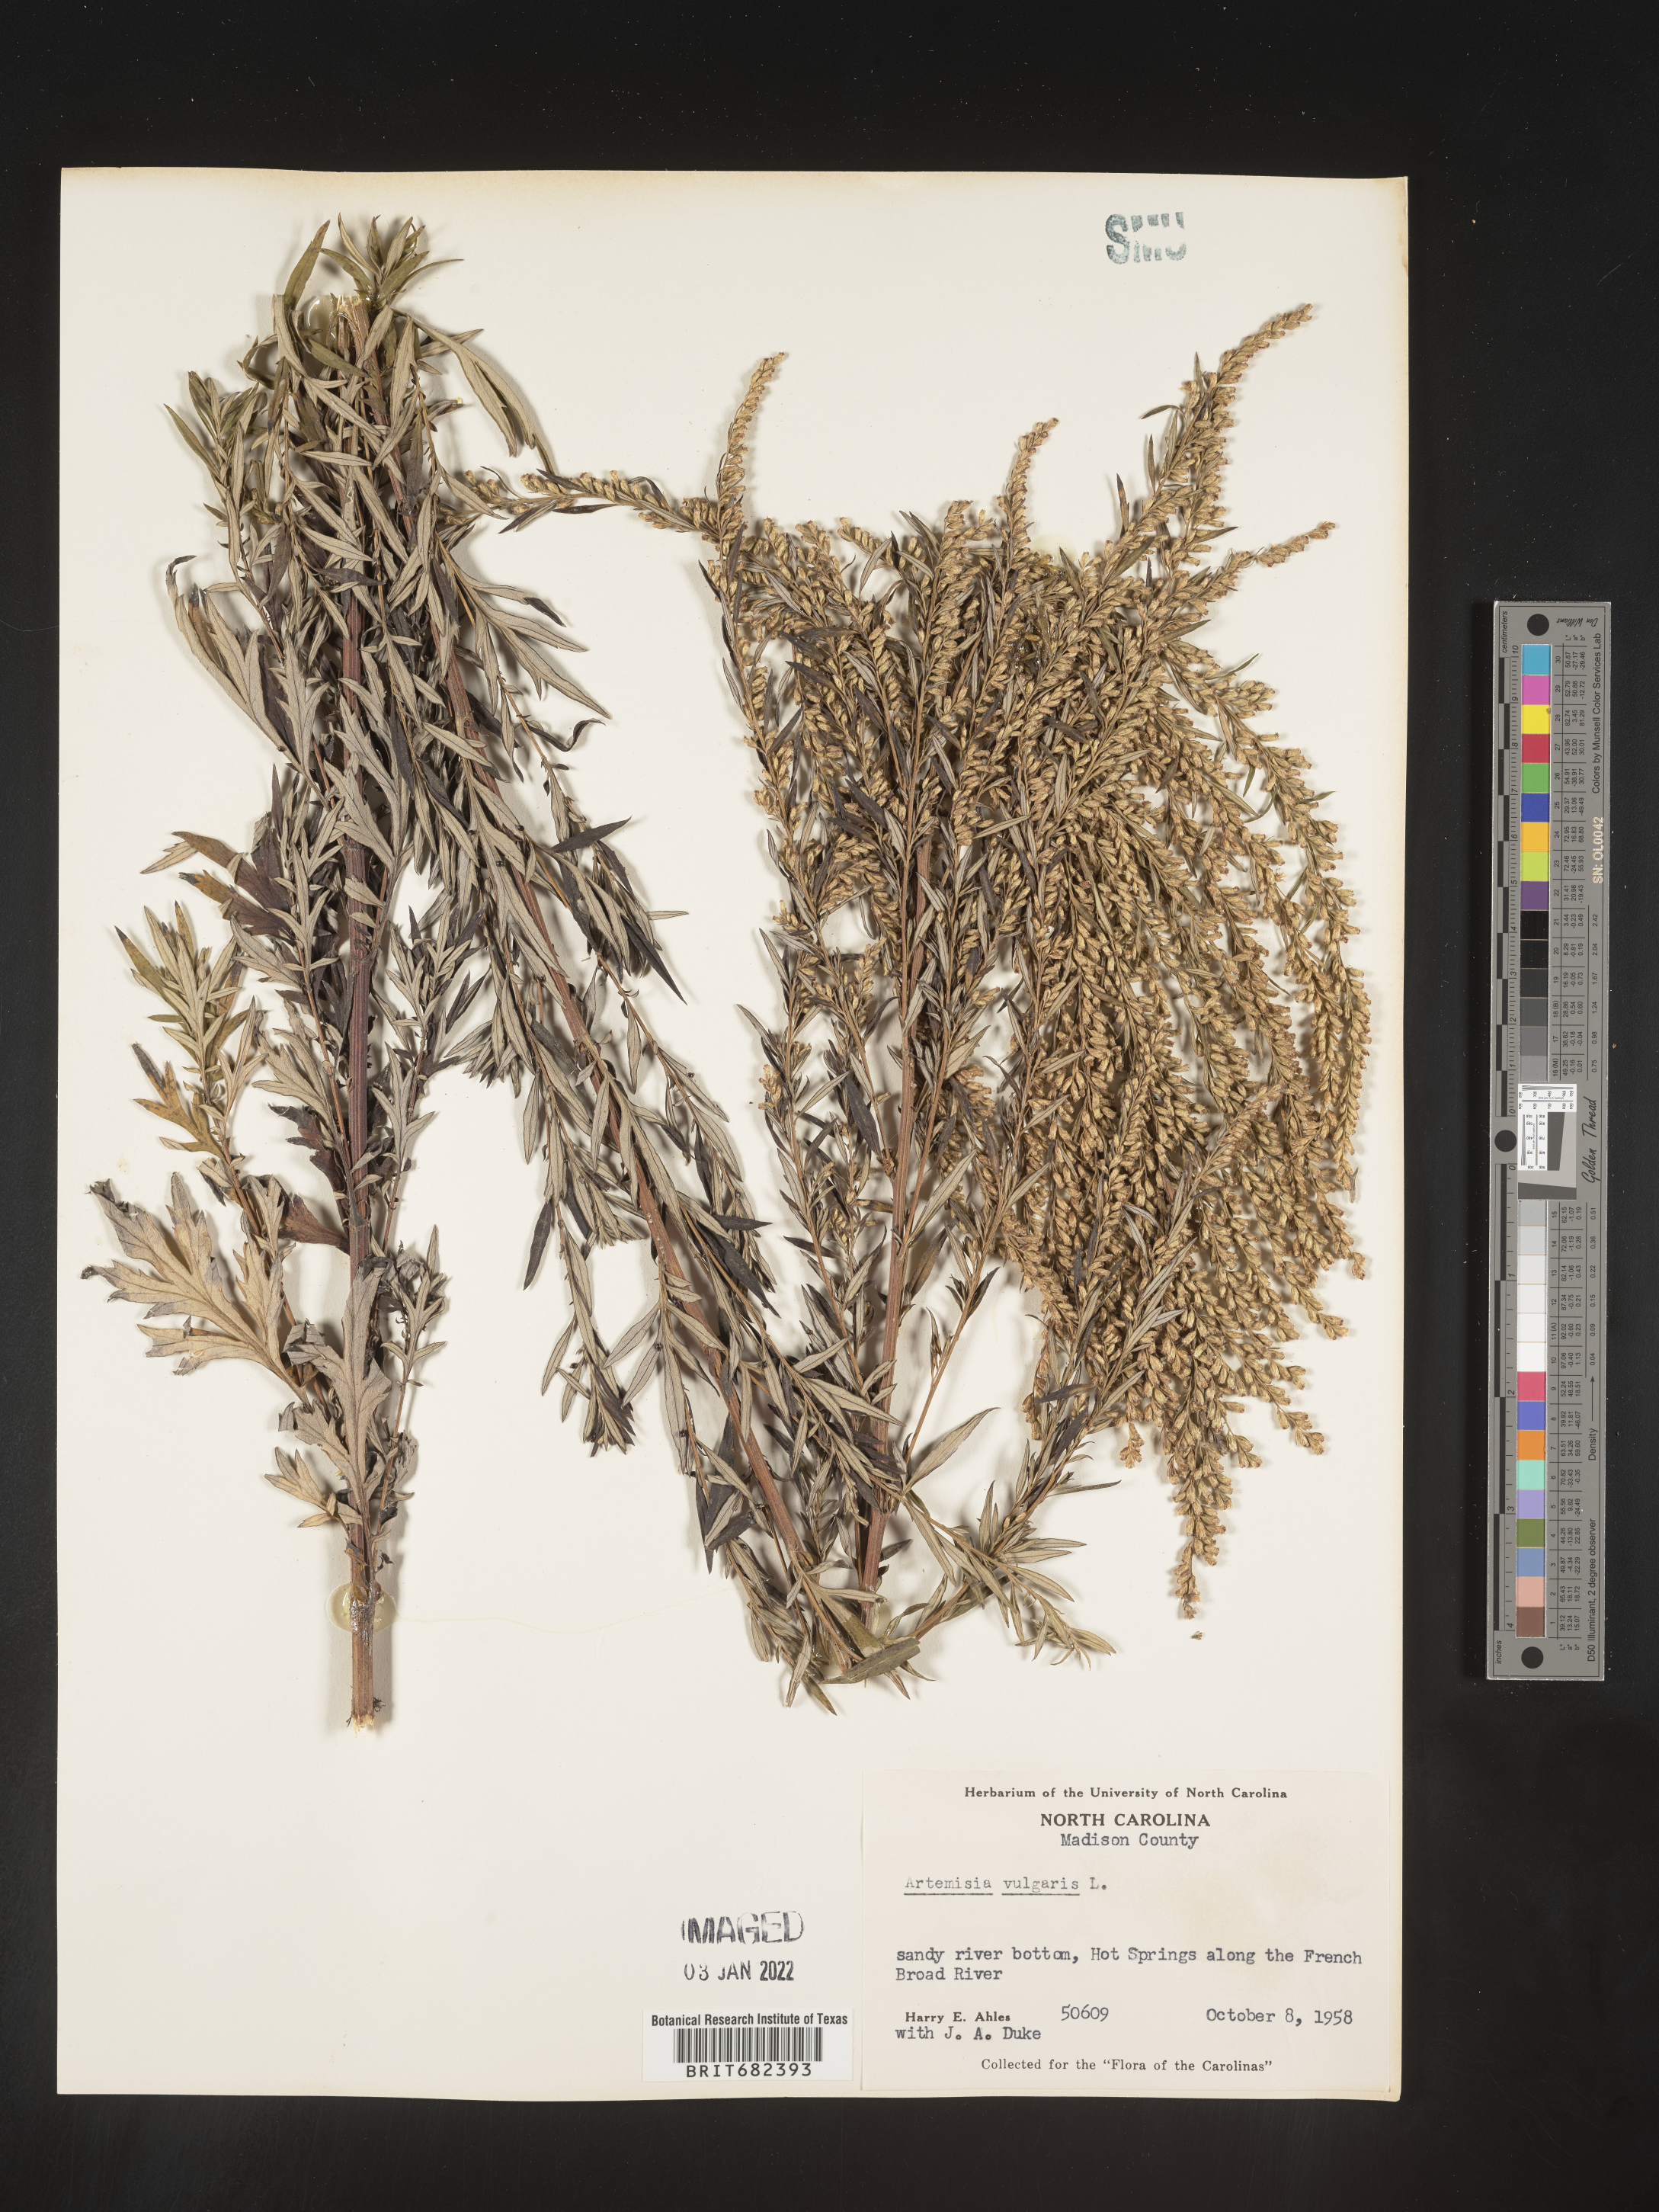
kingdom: Plantae
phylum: Tracheophyta
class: Magnoliopsida
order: Asterales
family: Asteraceae
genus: Artemisia
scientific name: Artemisia vulgaris
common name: Mugwort
